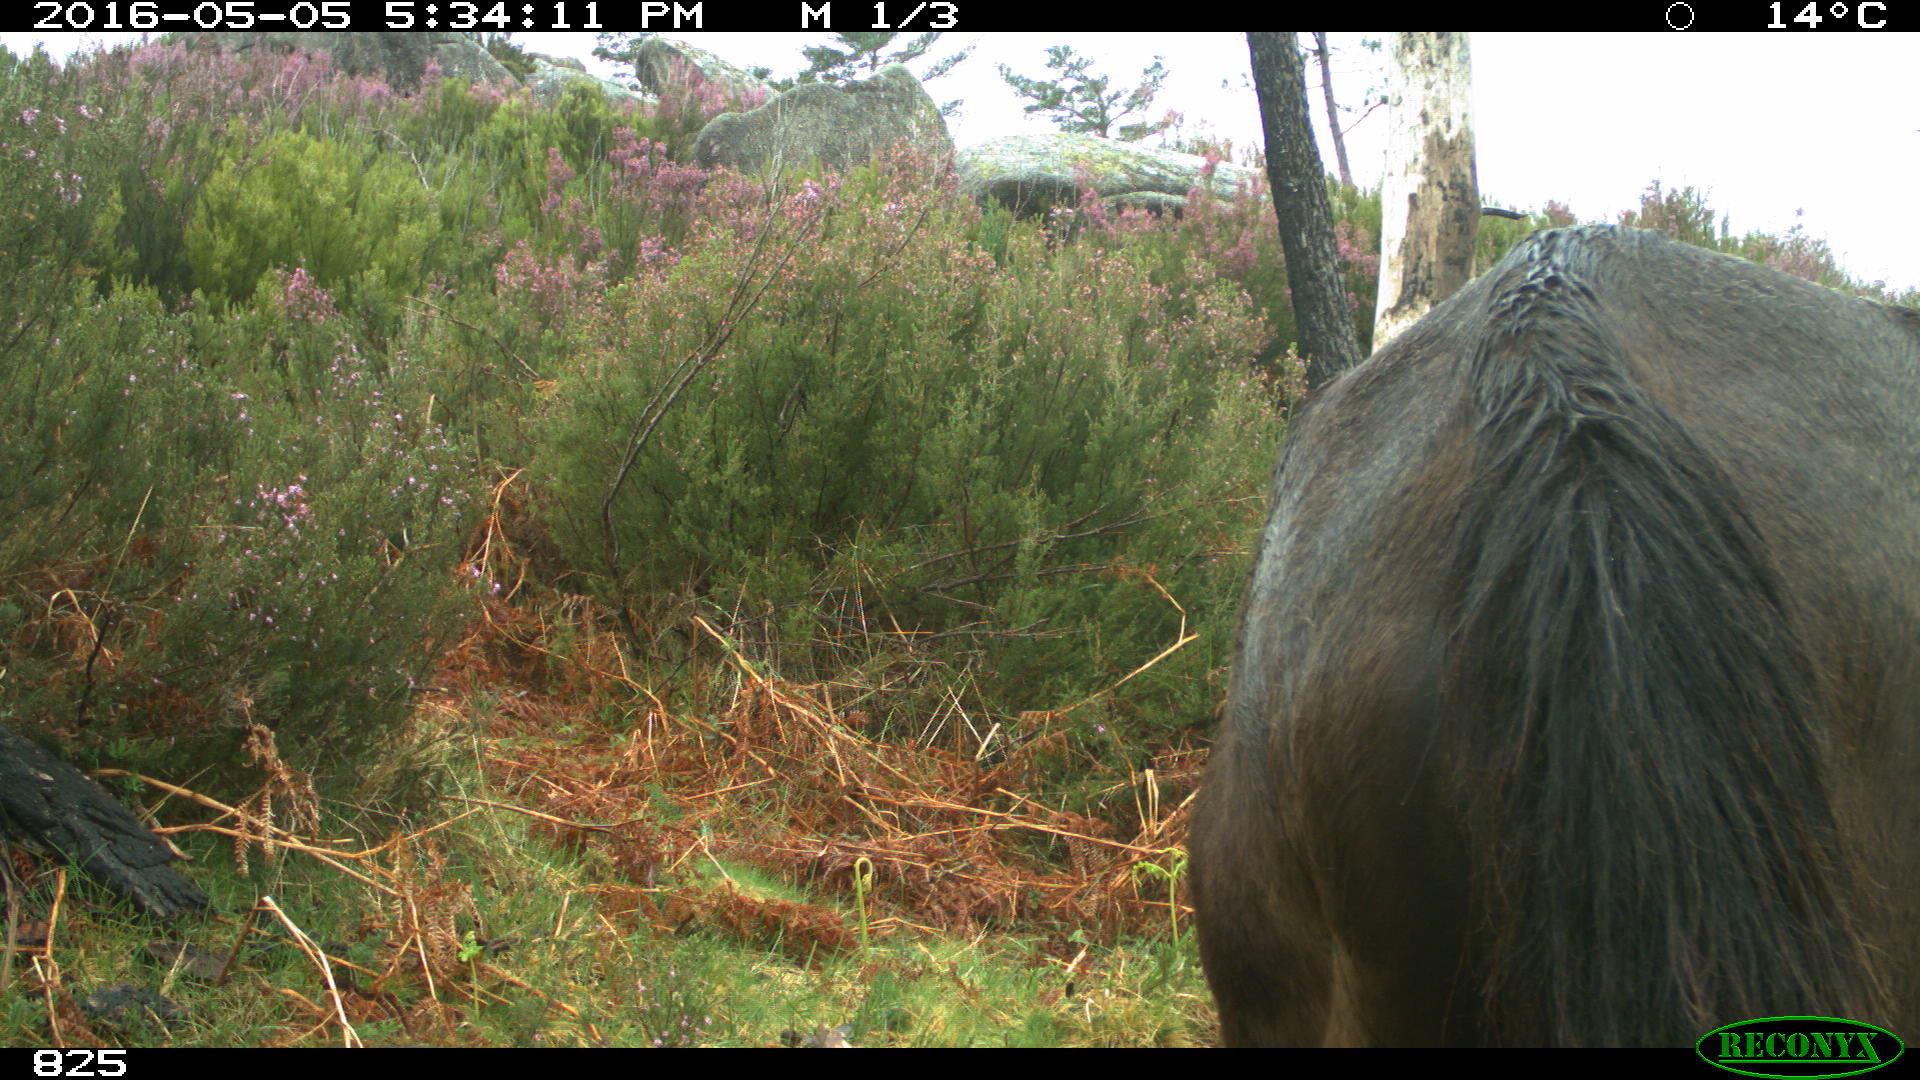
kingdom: Animalia
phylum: Chordata
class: Mammalia
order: Perissodactyla
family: Equidae
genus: Equus
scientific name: Equus caballus
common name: Horse
